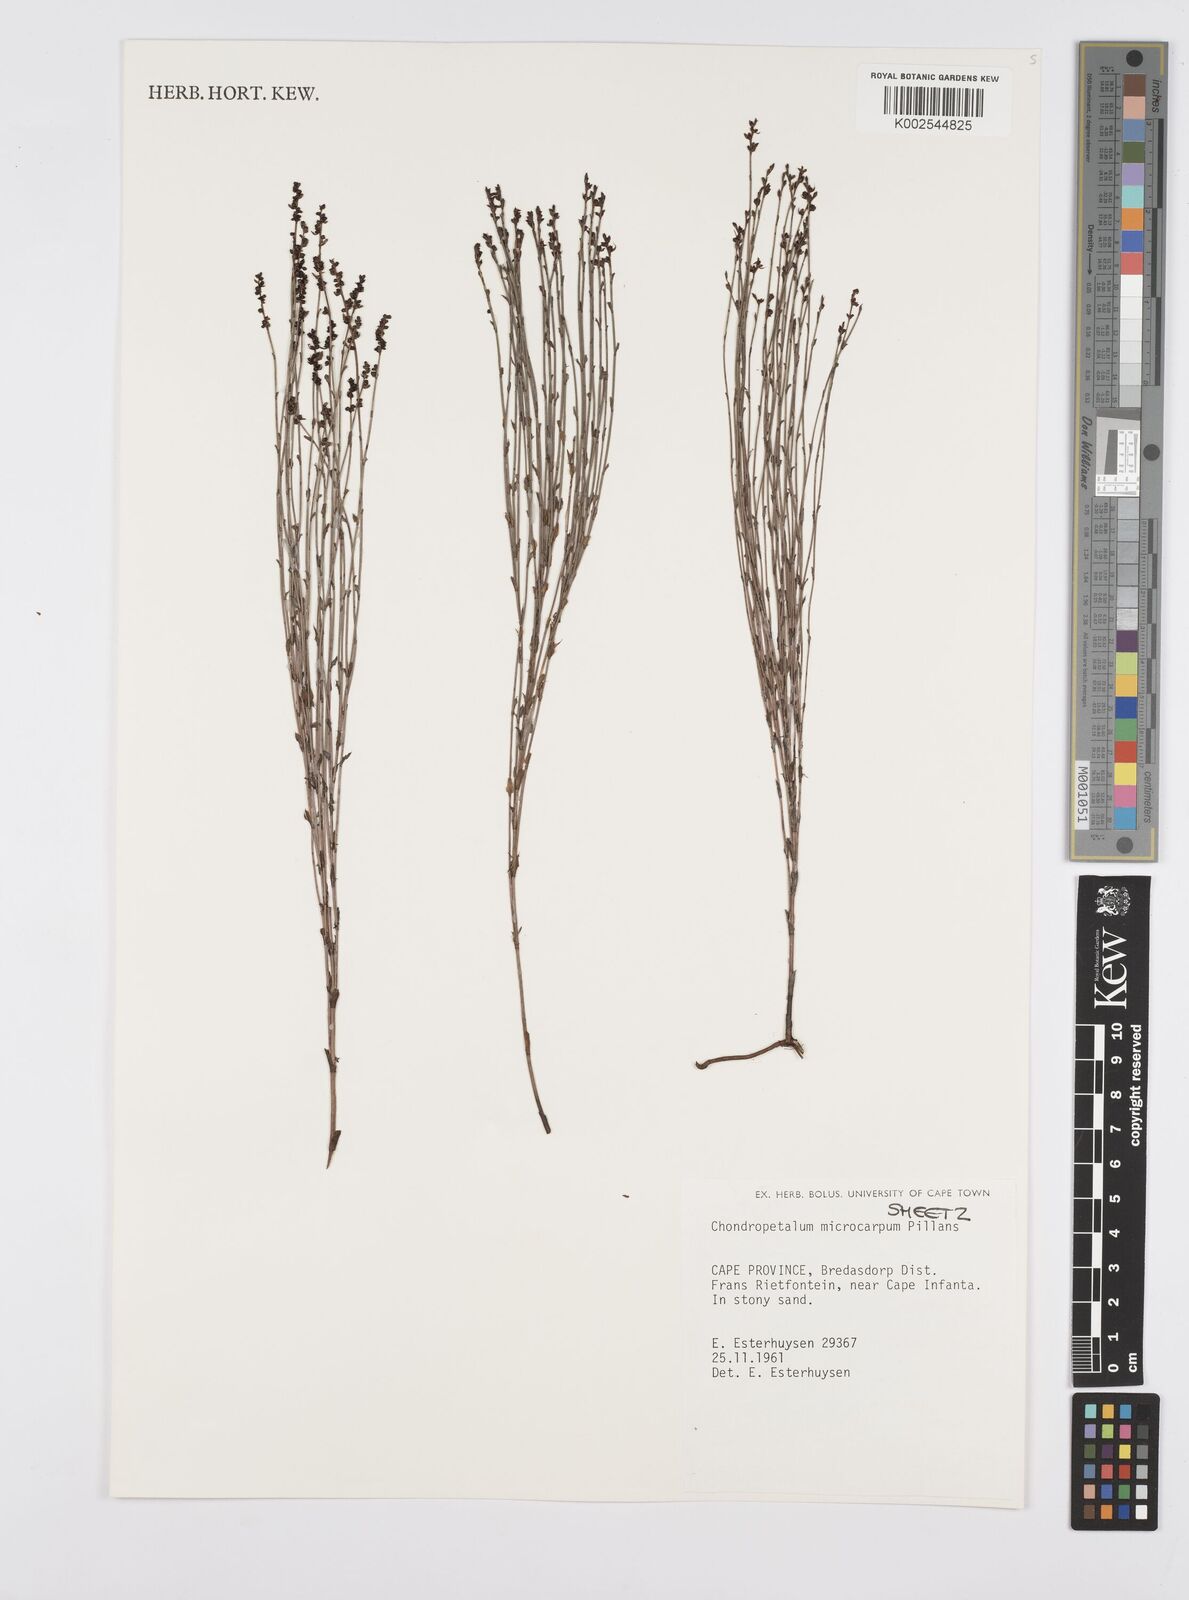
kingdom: Plantae
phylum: Tracheophyta
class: Liliopsida
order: Poales
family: Restionaceae
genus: Elegia
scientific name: Elegia microcarpa
